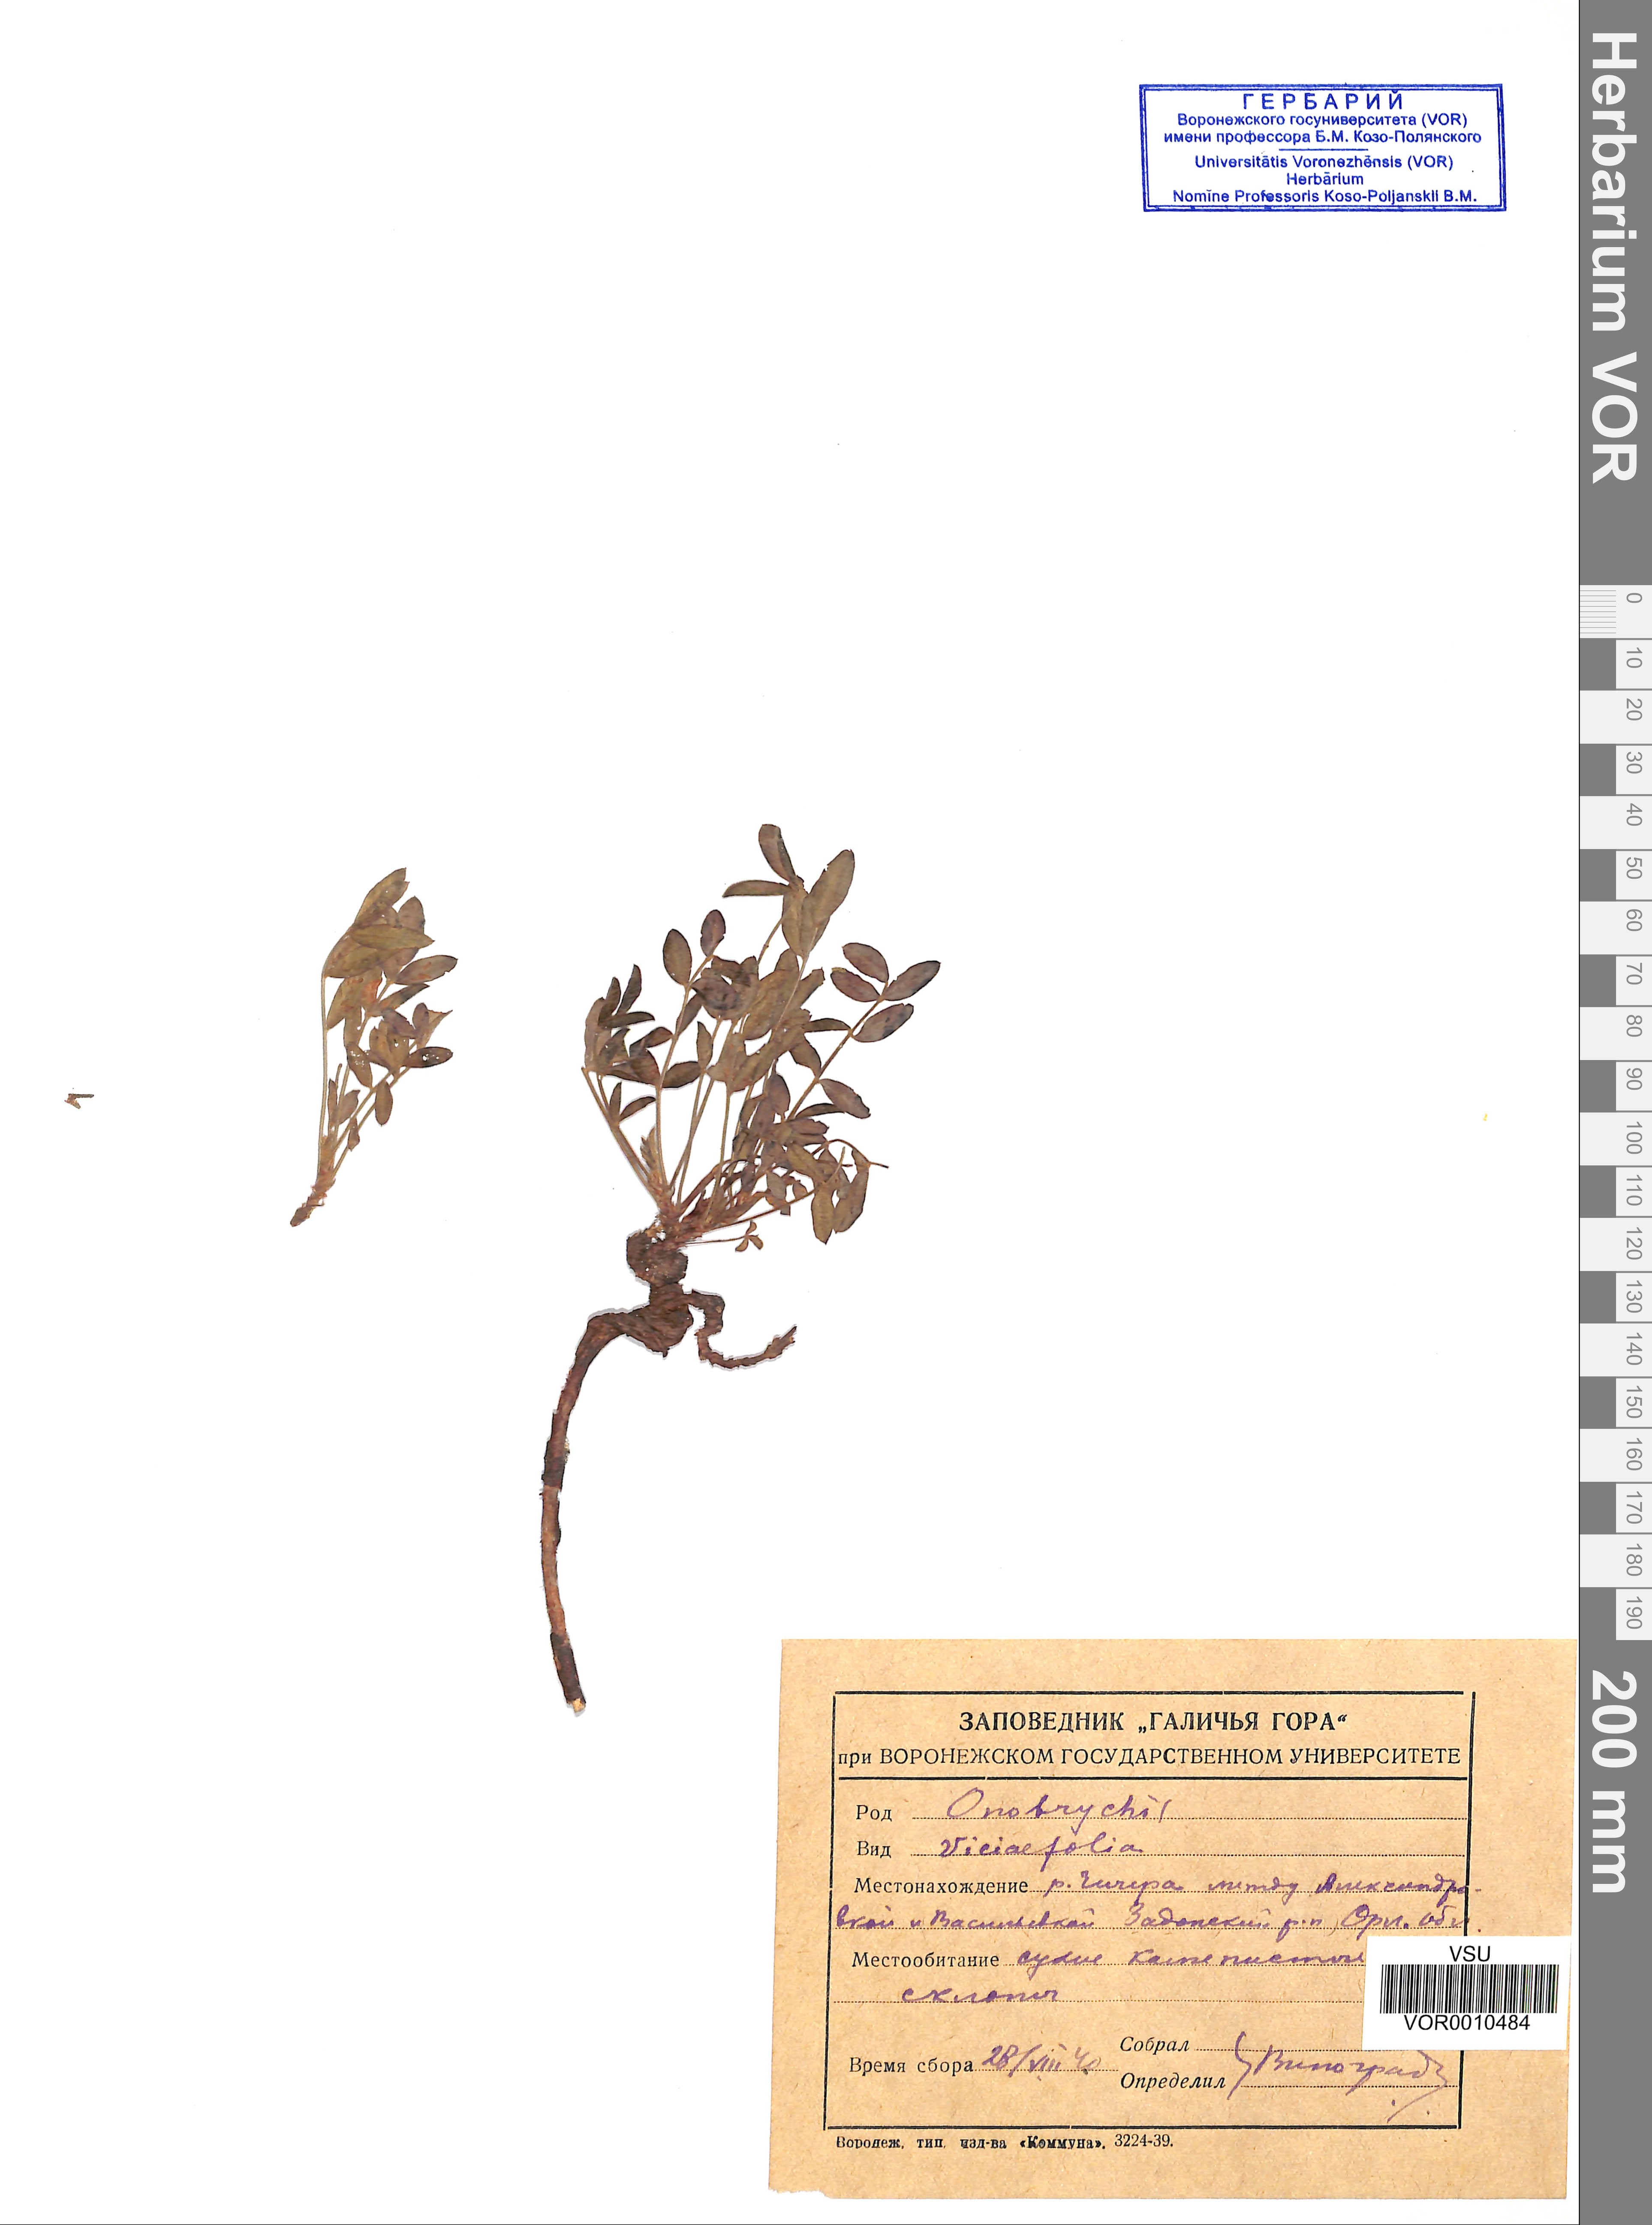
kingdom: Plantae
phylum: Tracheophyta
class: Magnoliopsida
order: Fabales
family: Fabaceae
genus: Onobrychis
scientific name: Onobrychis viciifolia
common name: Sainfoin
